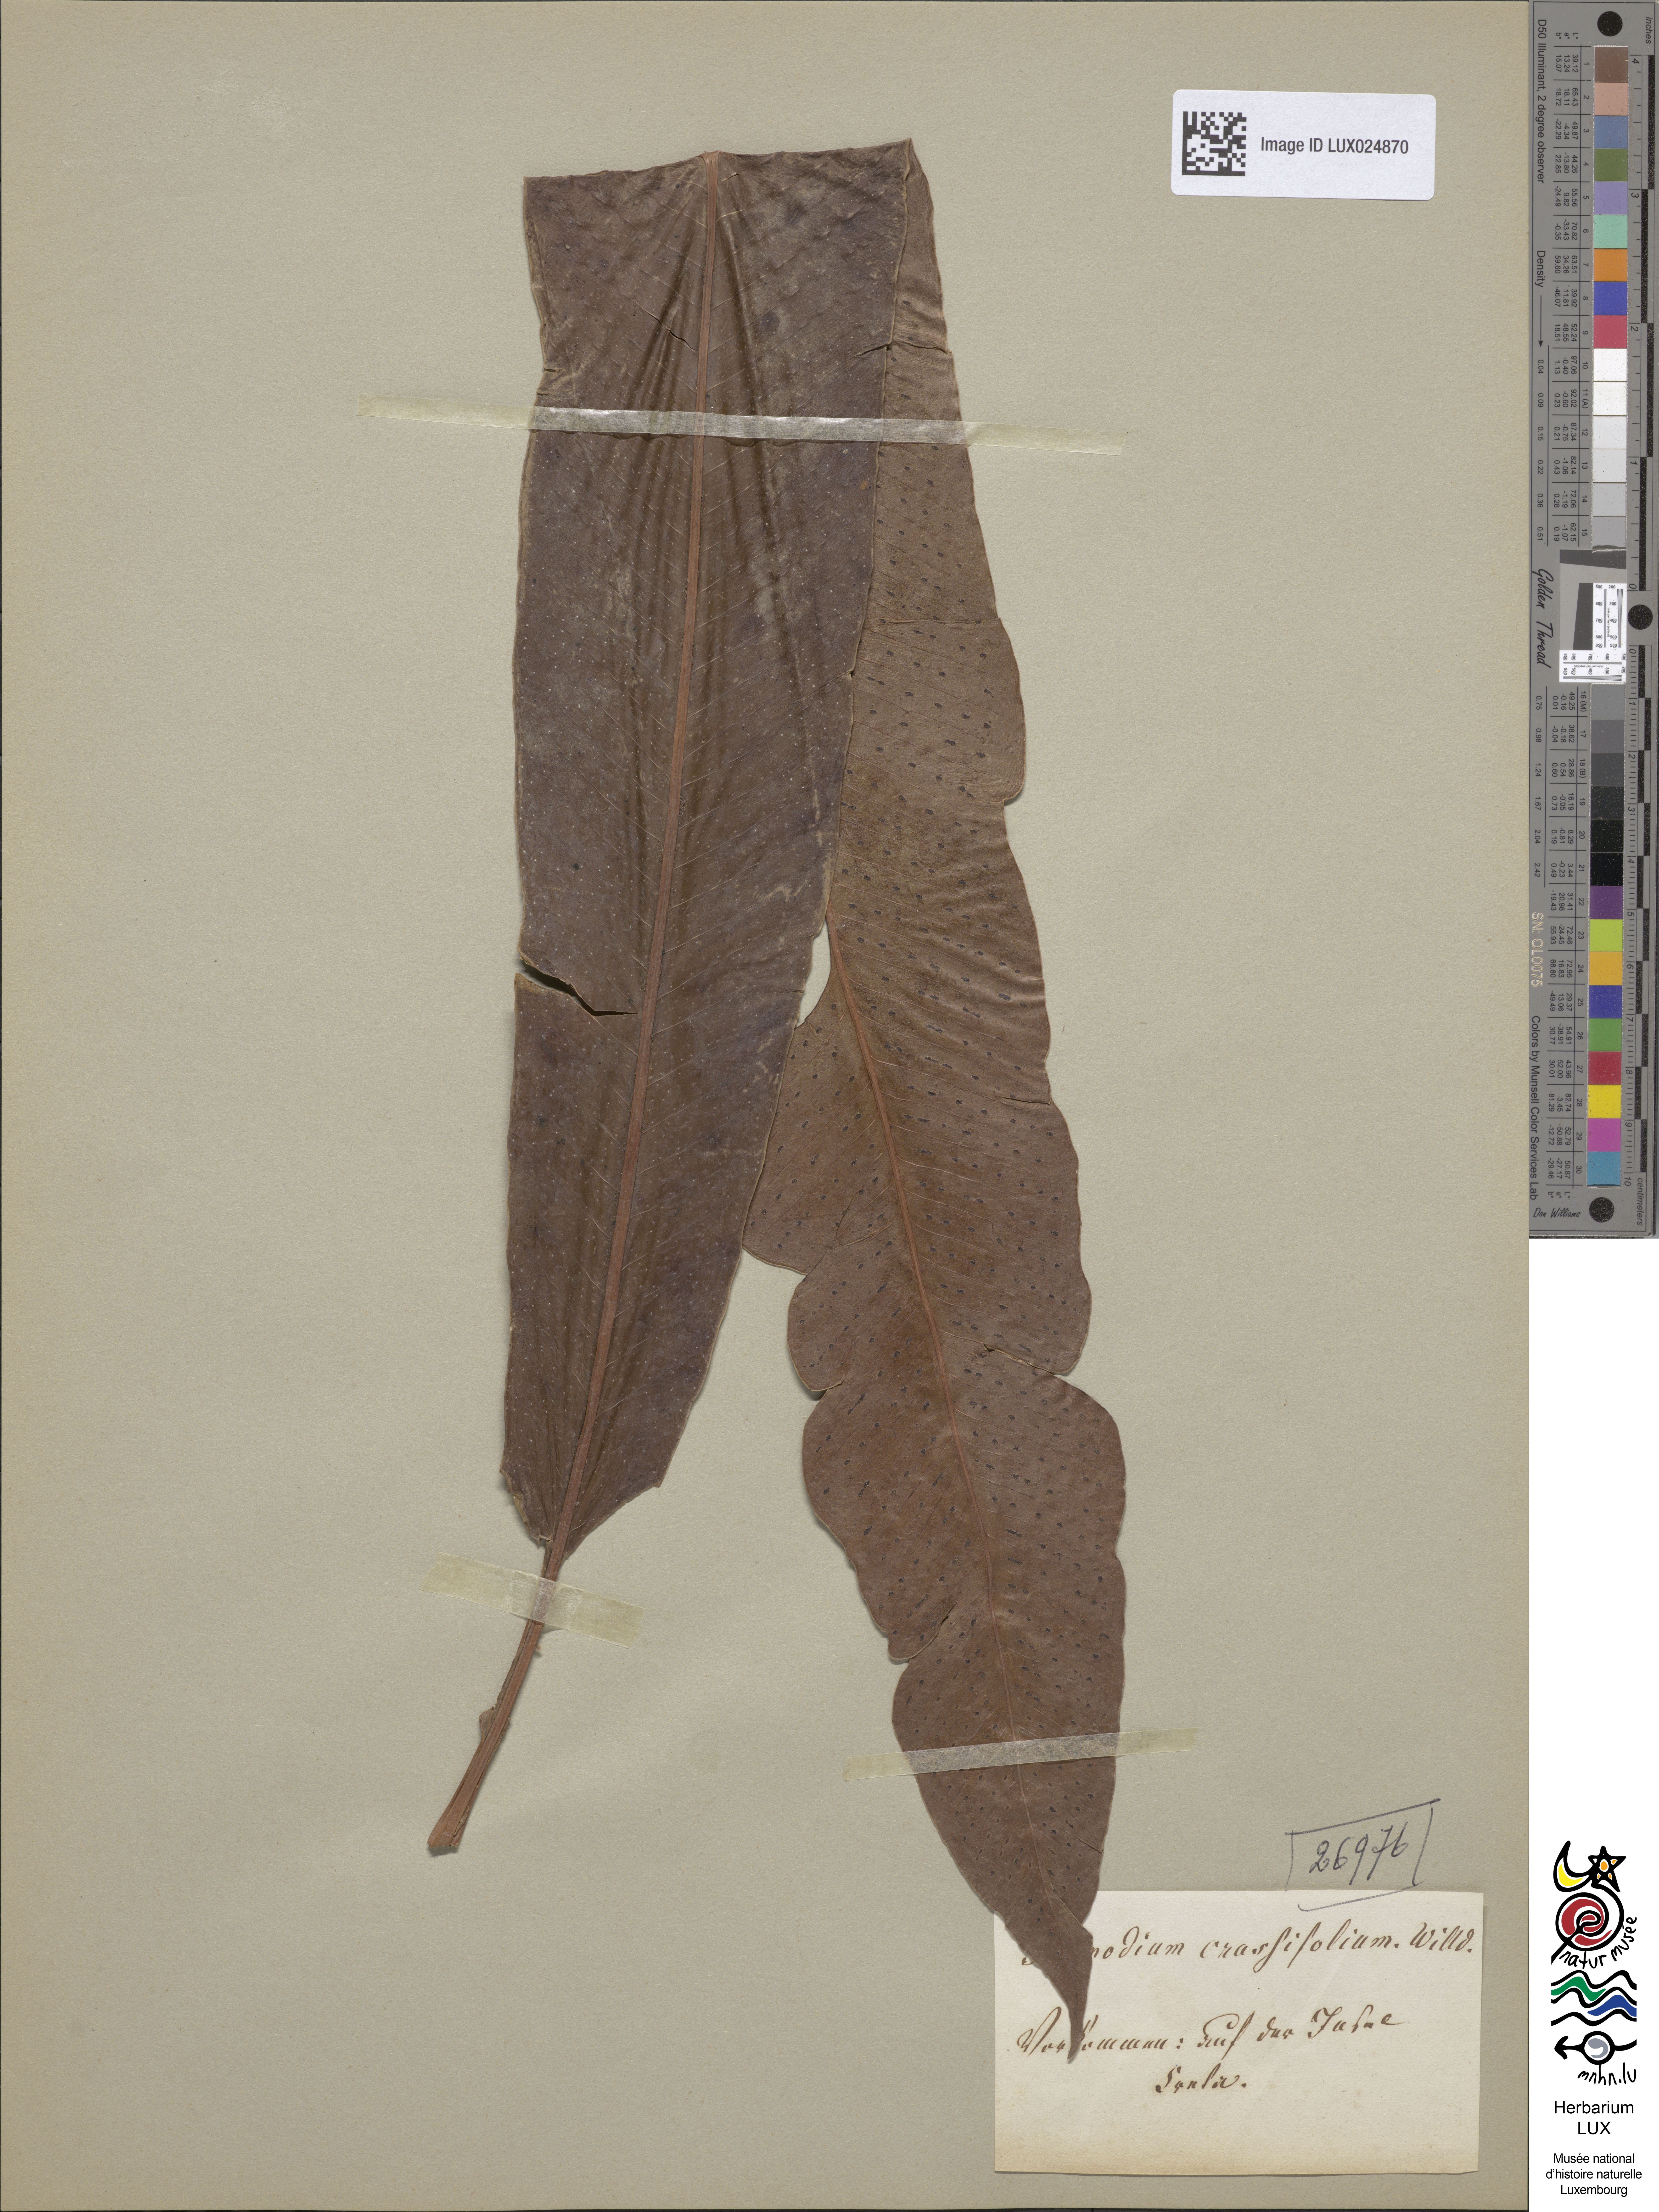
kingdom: Plantae
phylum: Tracheophyta
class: Polypodiopsida
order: Polypodiales
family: Polypodiaceae
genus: Polypodium
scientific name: Polypodium
